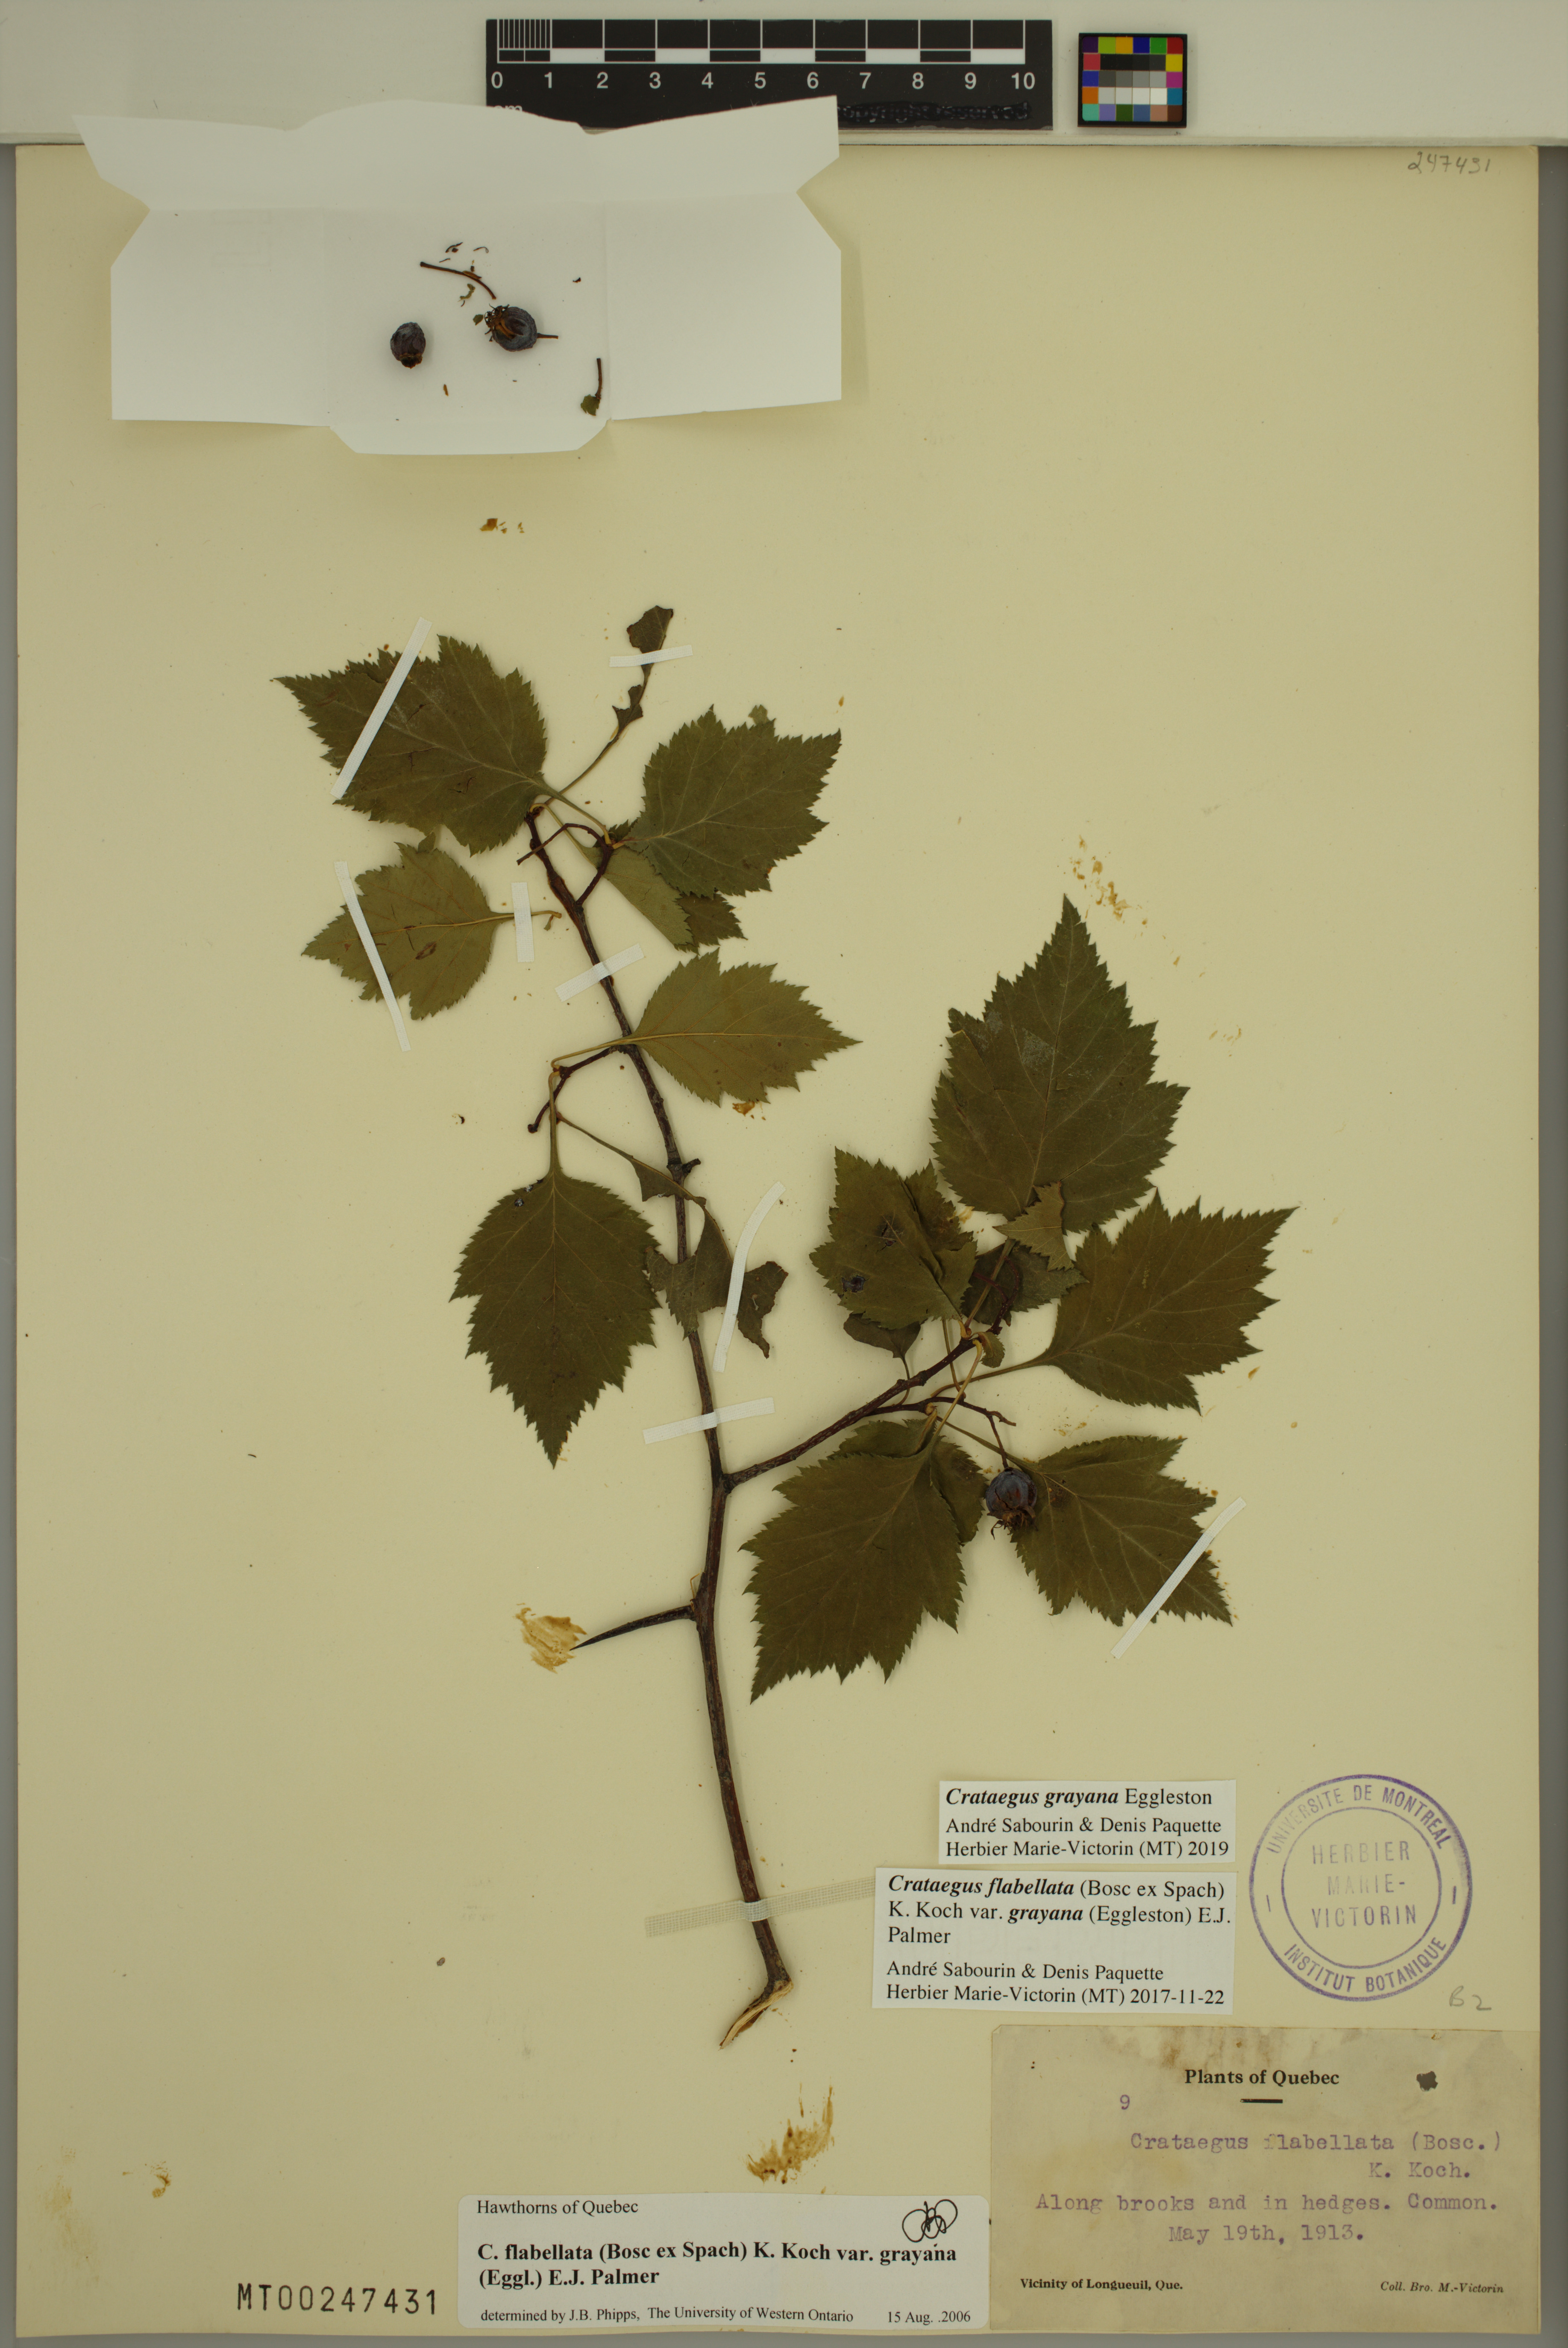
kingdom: Plantae
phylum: Tracheophyta
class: Magnoliopsida
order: Rosales
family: Rosaceae
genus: Crataegus
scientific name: Crataegus schuettei
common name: Schuette's hawthorn
